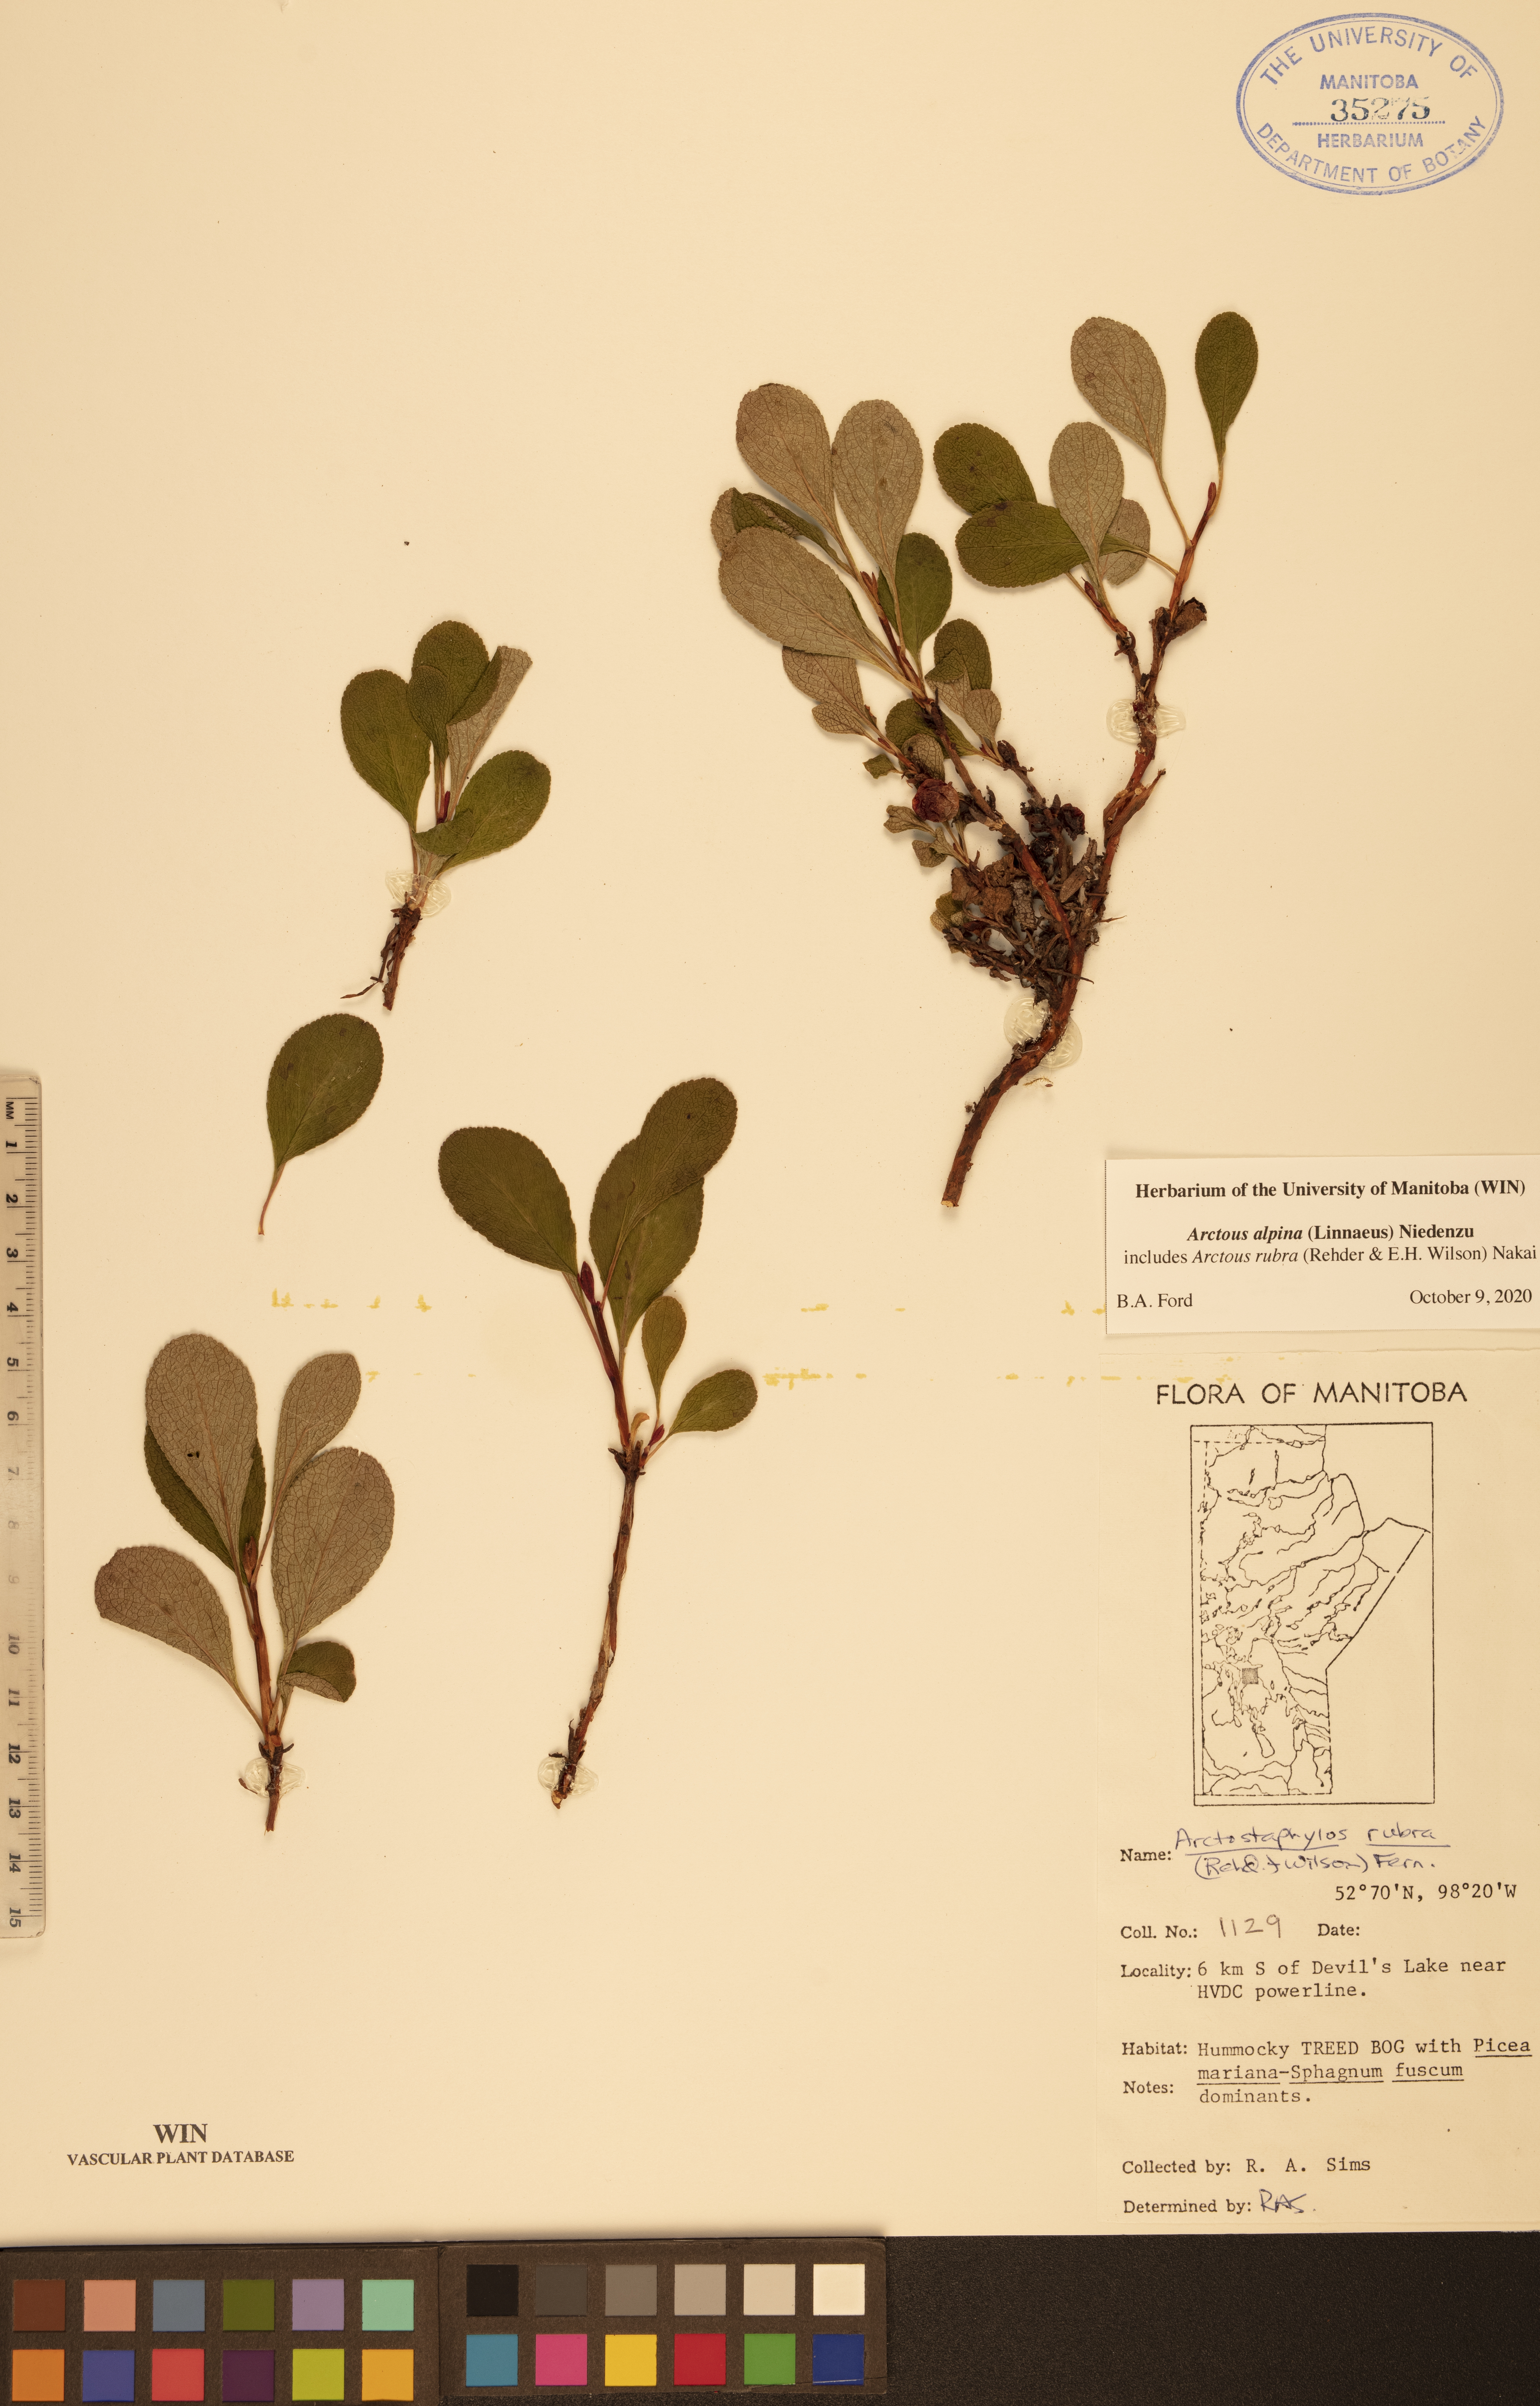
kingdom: Plantae
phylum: Tracheophyta
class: Magnoliopsida
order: Ericales
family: Ericaceae
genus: Arctostaphylos
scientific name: Arctostaphylos alpinus
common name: Alpine bearberry
